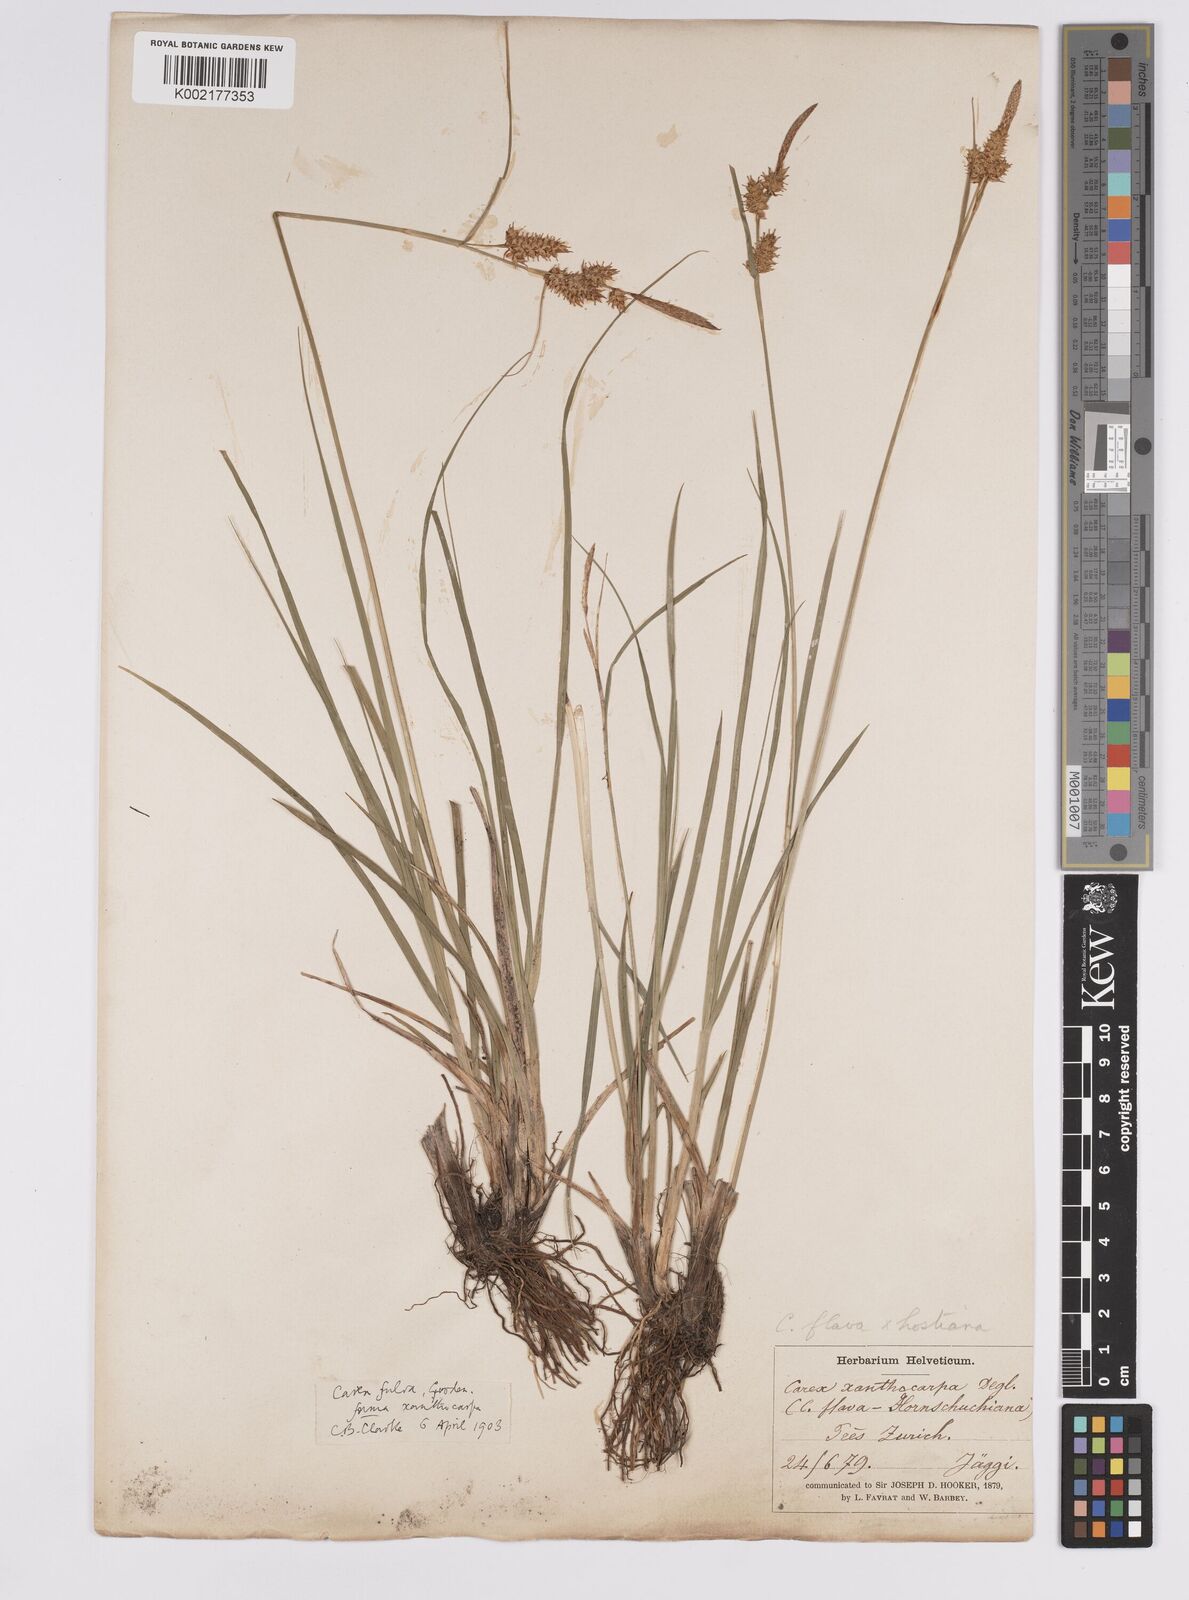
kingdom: Plantae
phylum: Tracheophyta
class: Liliopsida
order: Poales
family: Cyperaceae
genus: Carex
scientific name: Carex hostiana
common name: Tawny sedge
